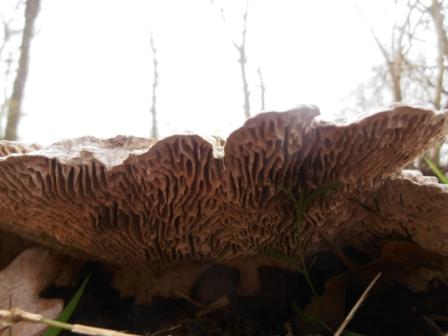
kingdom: Fungi
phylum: Basidiomycota
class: Agaricomycetes
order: Polyporales
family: Fomitopsidaceae
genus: Daedalea
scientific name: Daedalea quercina
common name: ege-labyrintsvamp
